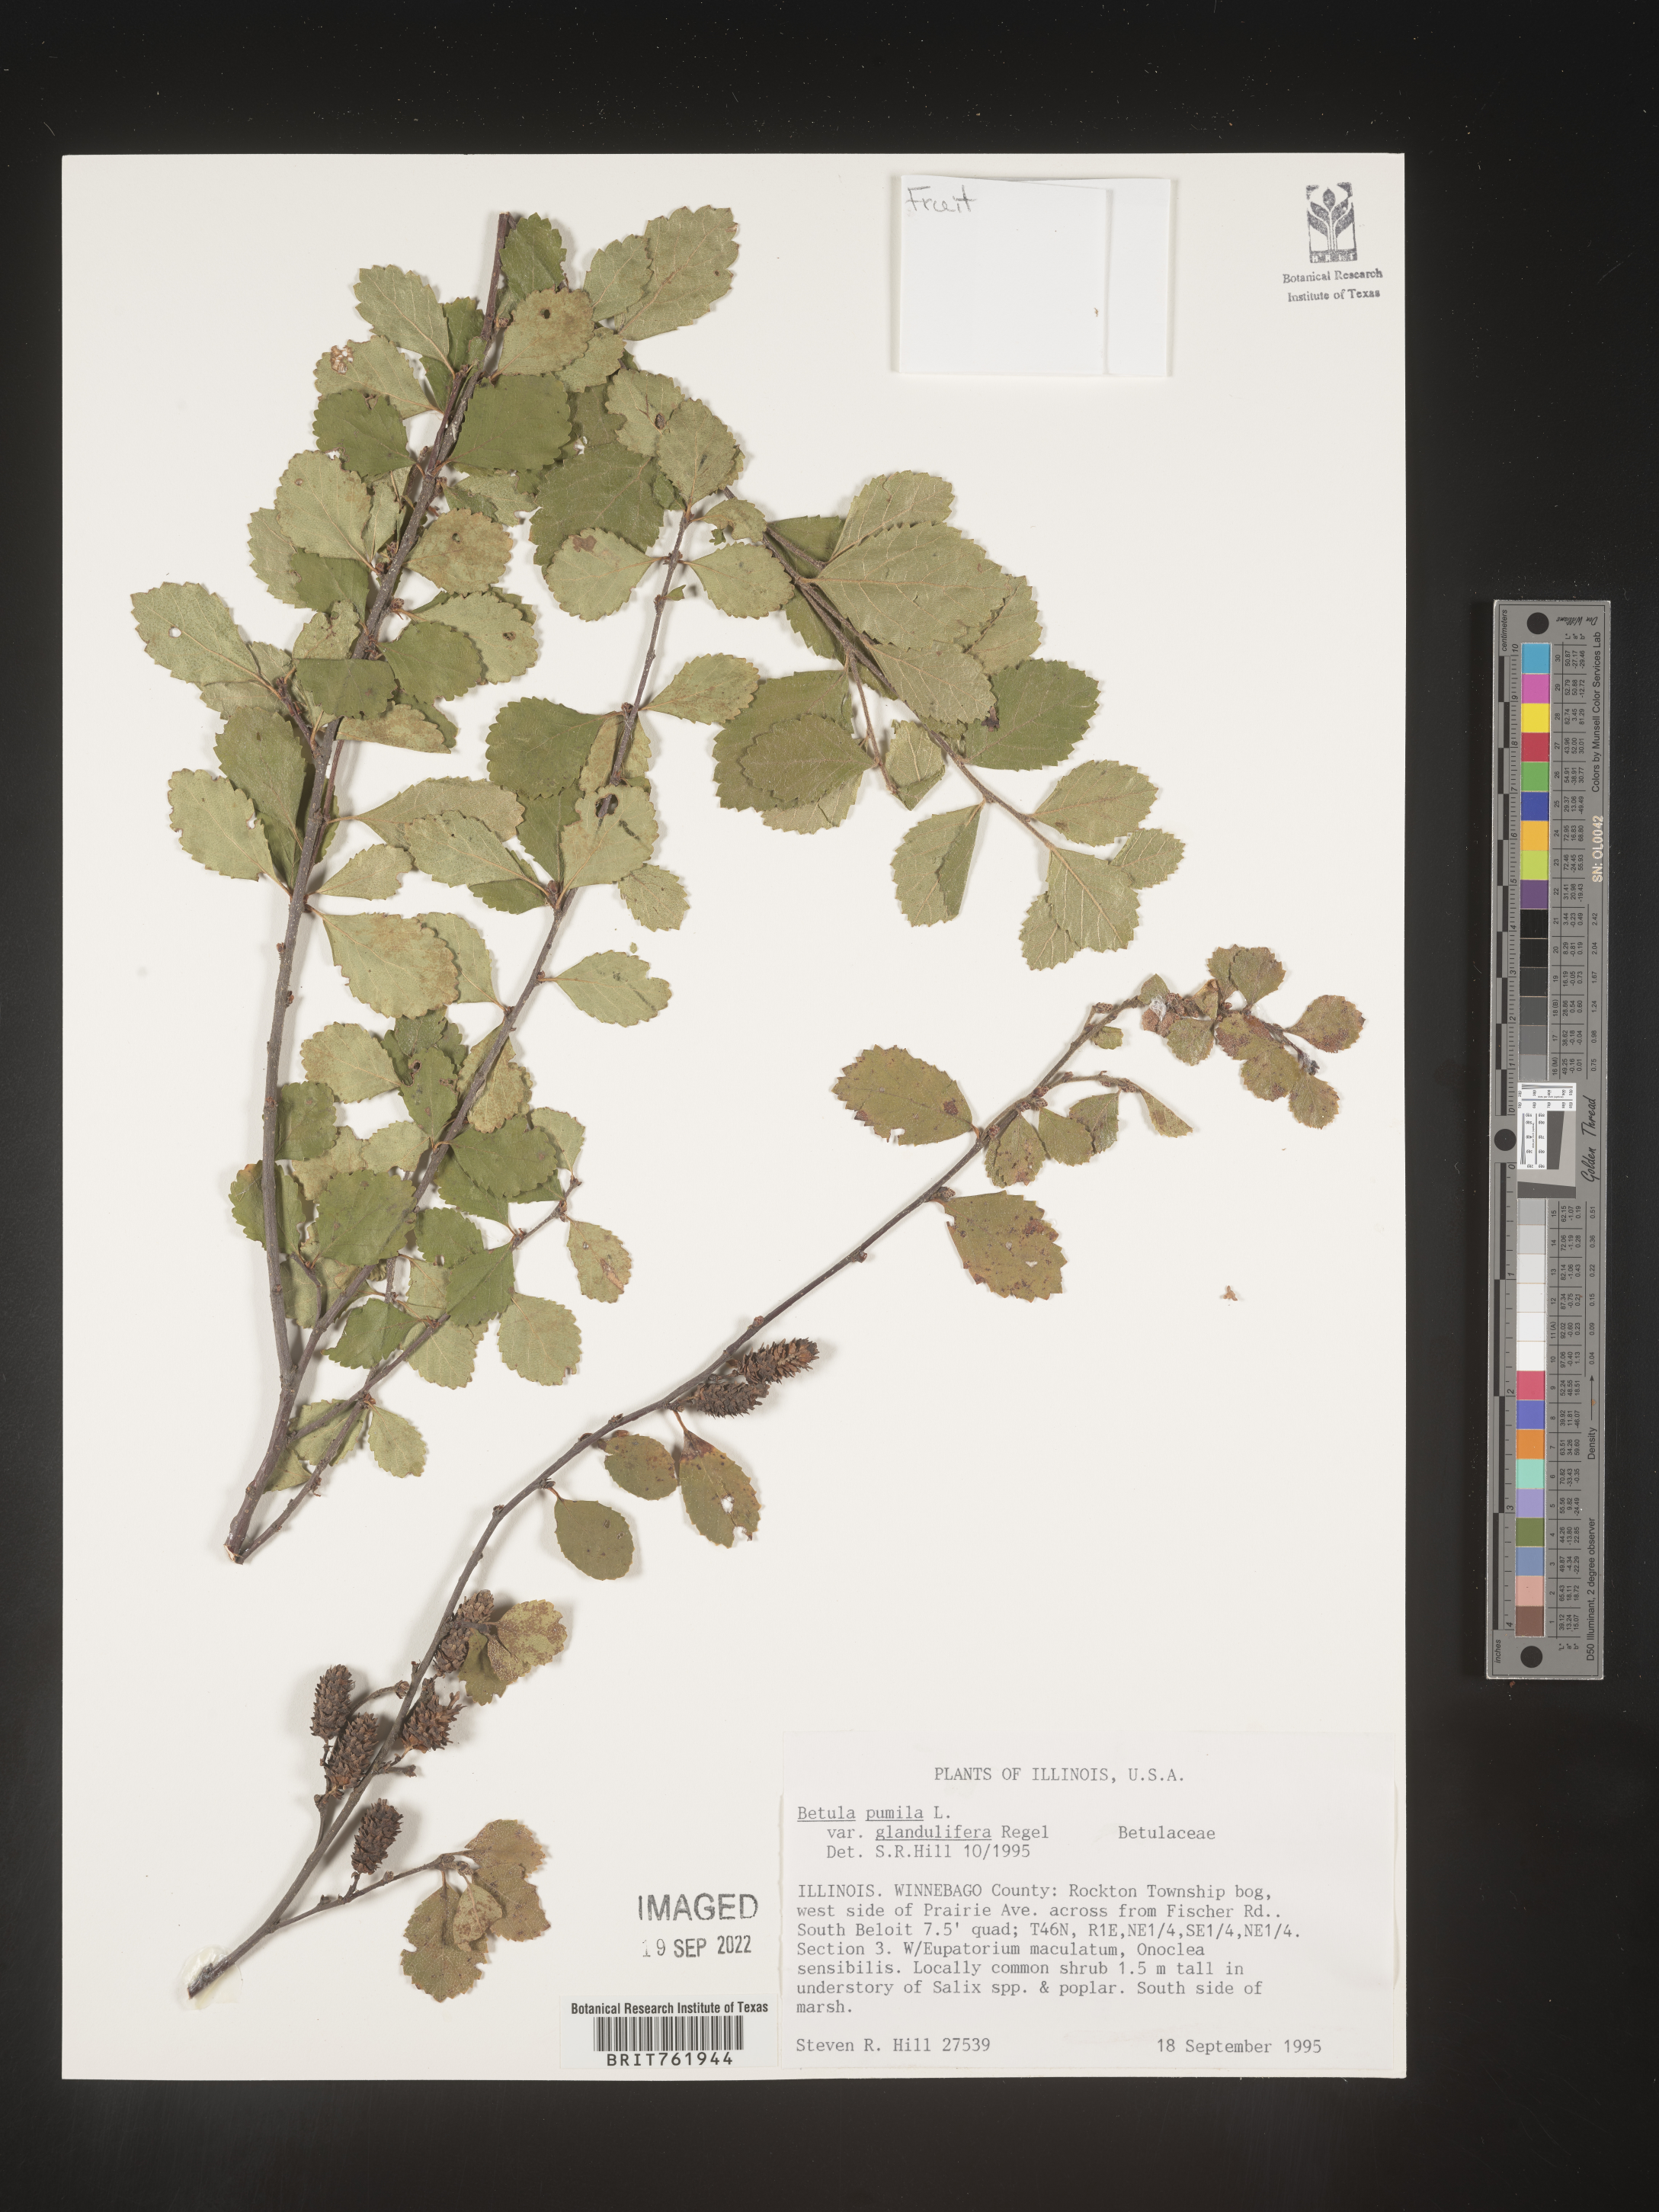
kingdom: Plantae
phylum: Tracheophyta
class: Magnoliopsida
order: Fagales
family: Betulaceae
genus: Betula
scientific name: Betula pumila
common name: Bog birch
